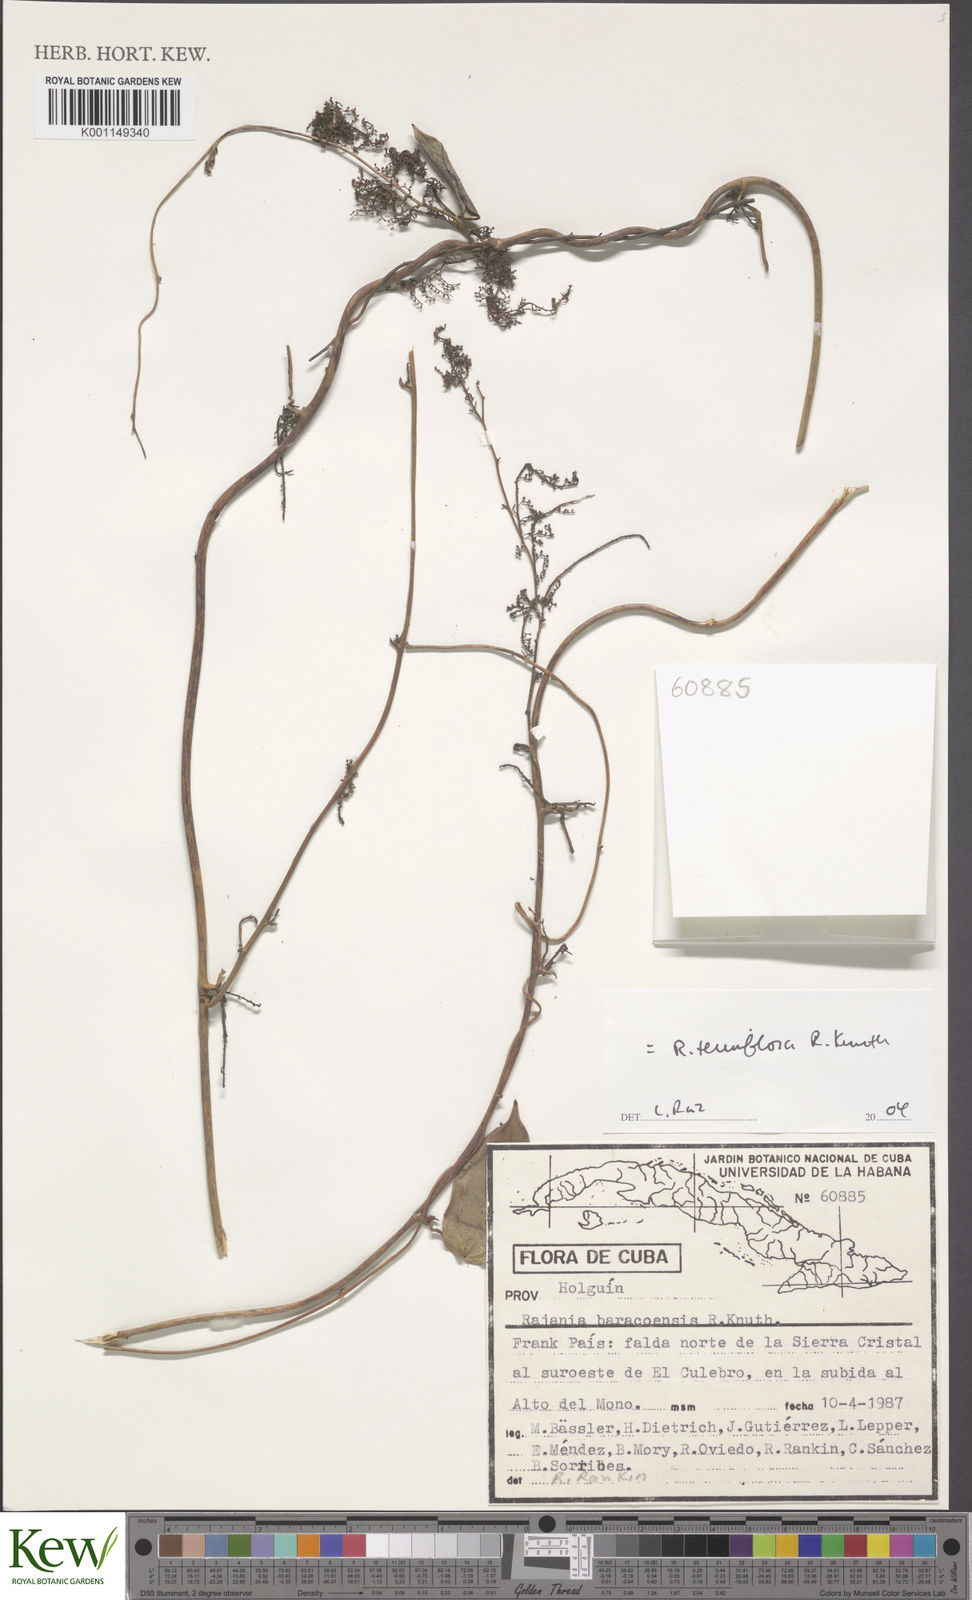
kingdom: Plantae
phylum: Tracheophyta
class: Liliopsida
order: Dioscoreales
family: Dioscoreaceae
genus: Dioscorea
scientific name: Dioscorea bulbifera
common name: Air yam
